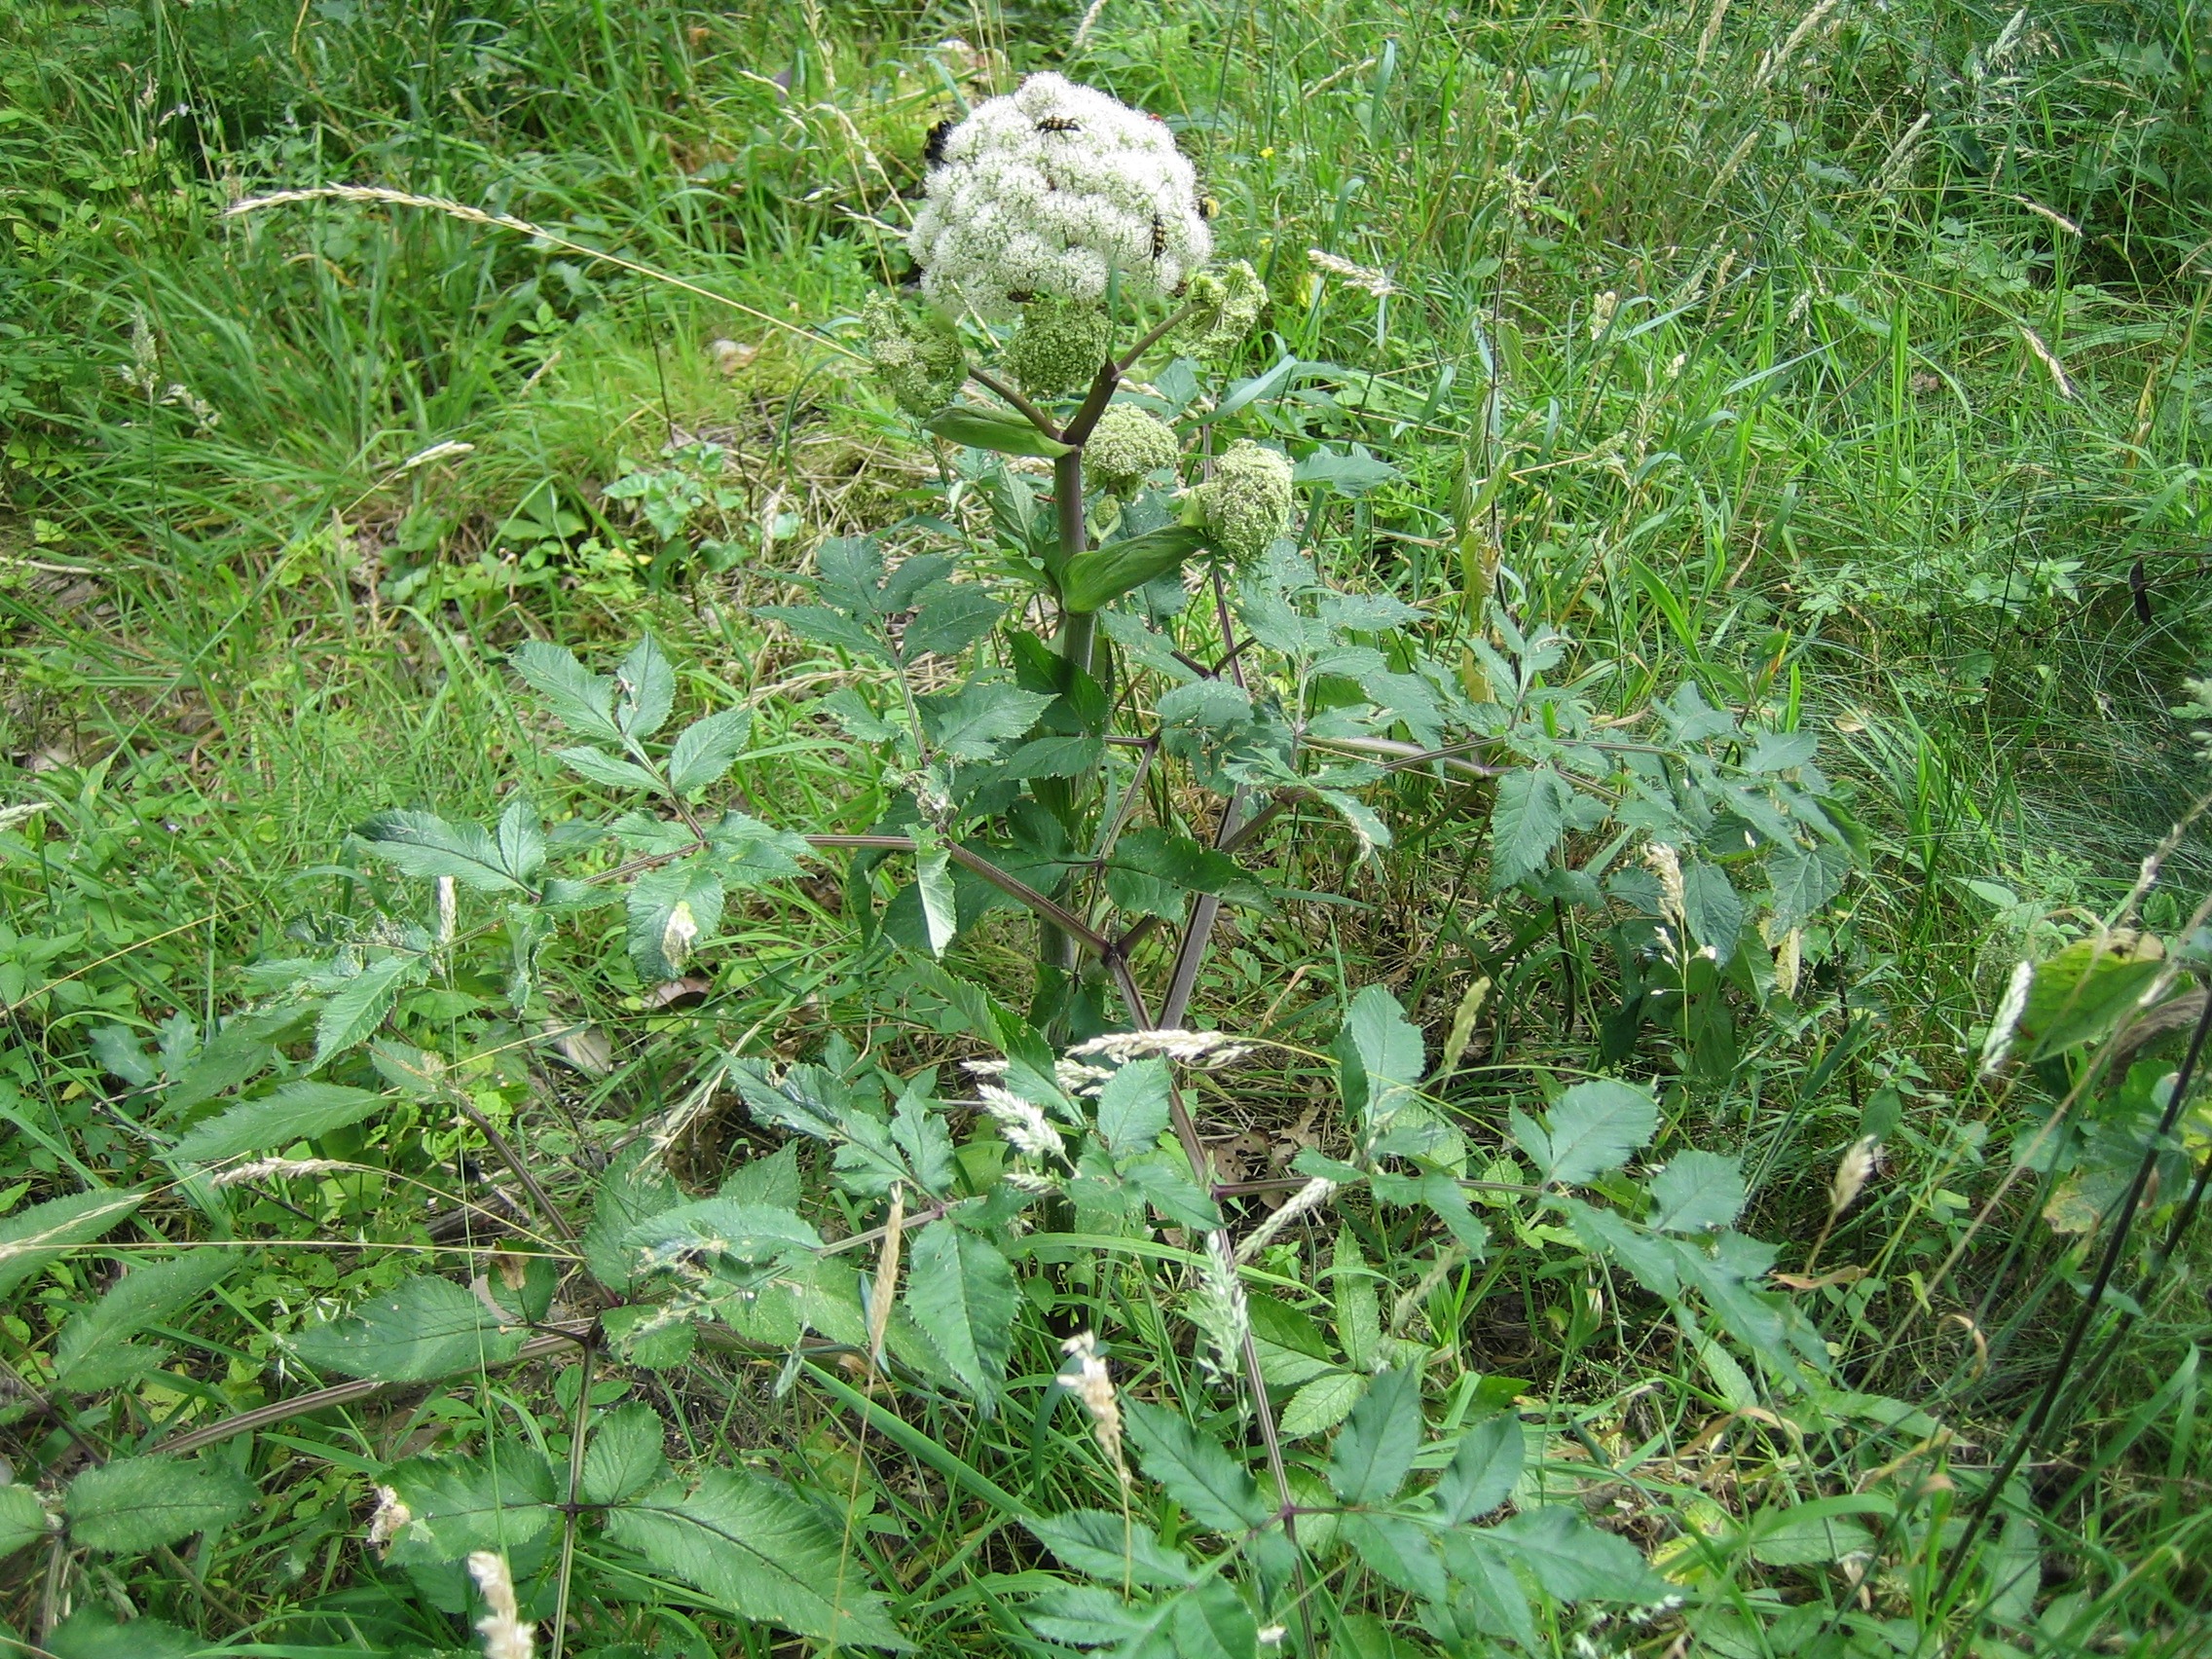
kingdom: Plantae
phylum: Tracheophyta
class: Magnoliopsida
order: Apiales
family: Apiaceae
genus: Angelica
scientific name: Angelica sylvestris
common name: Angelik
